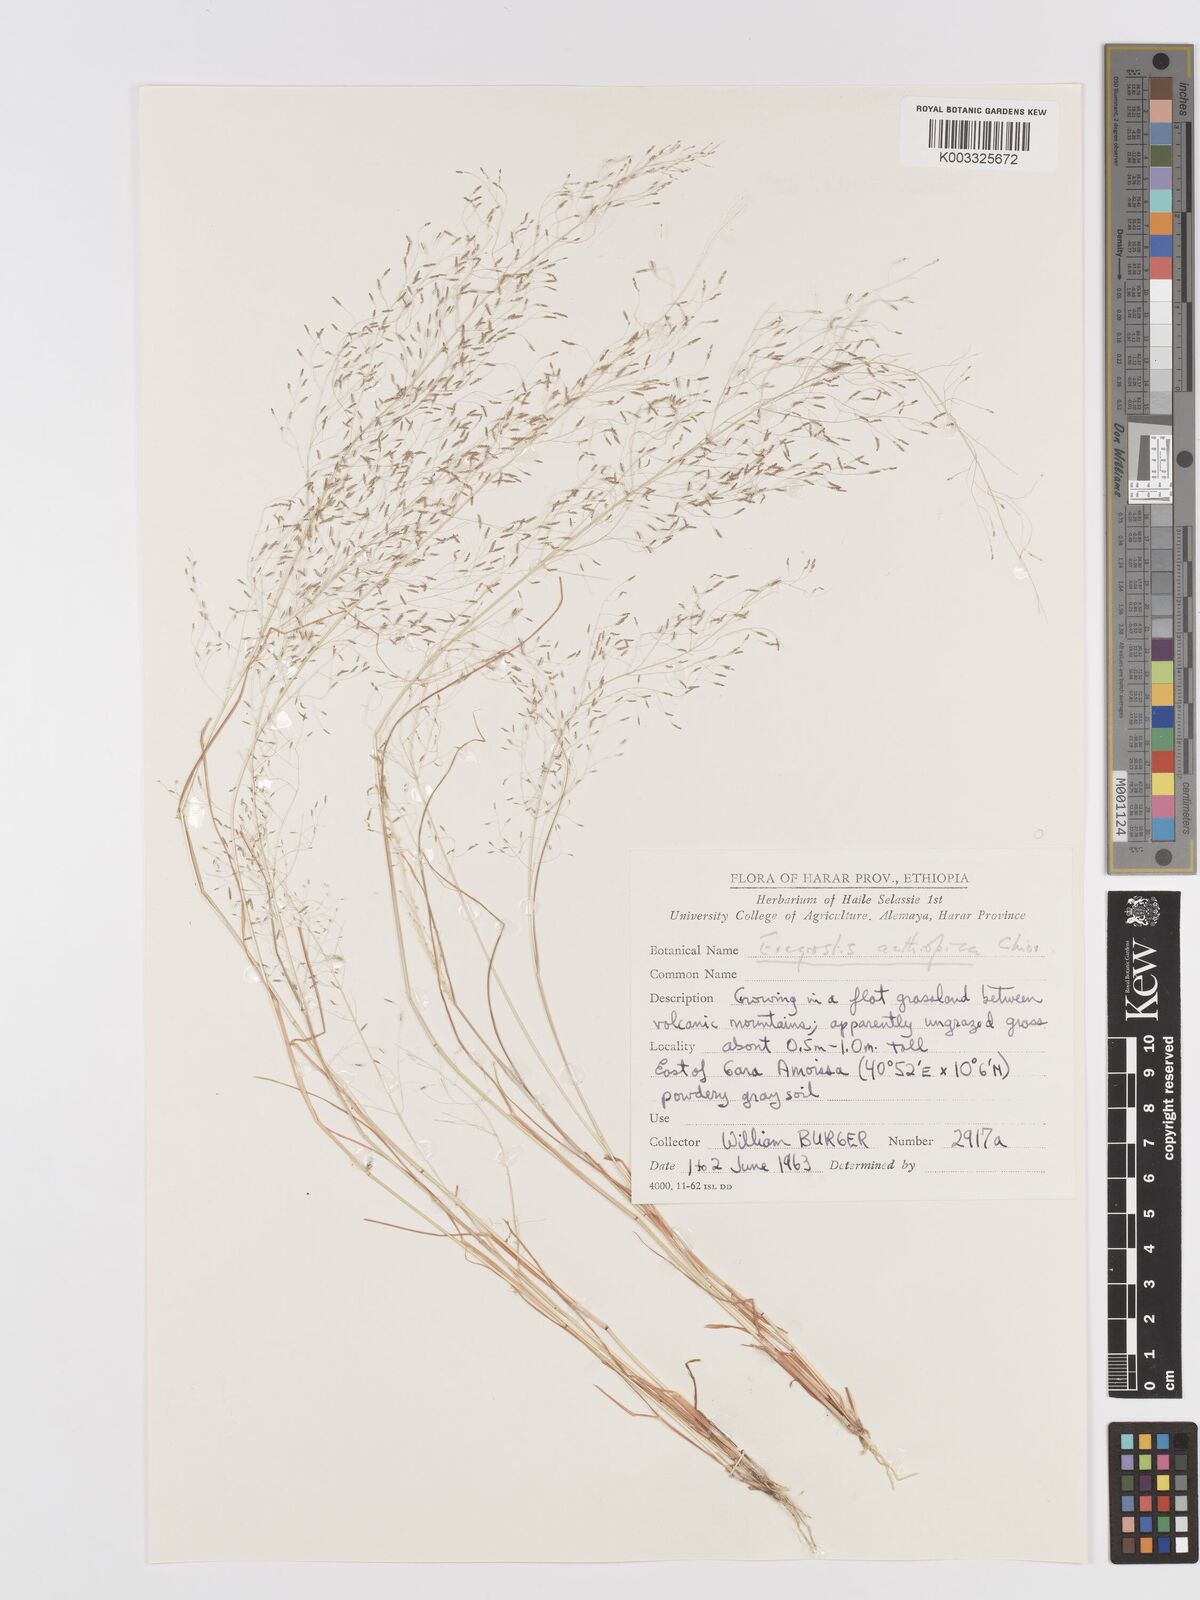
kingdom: Plantae
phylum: Tracheophyta
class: Liliopsida
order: Poales
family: Poaceae
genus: Eragrostis
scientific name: Eragrostis aethiopica
